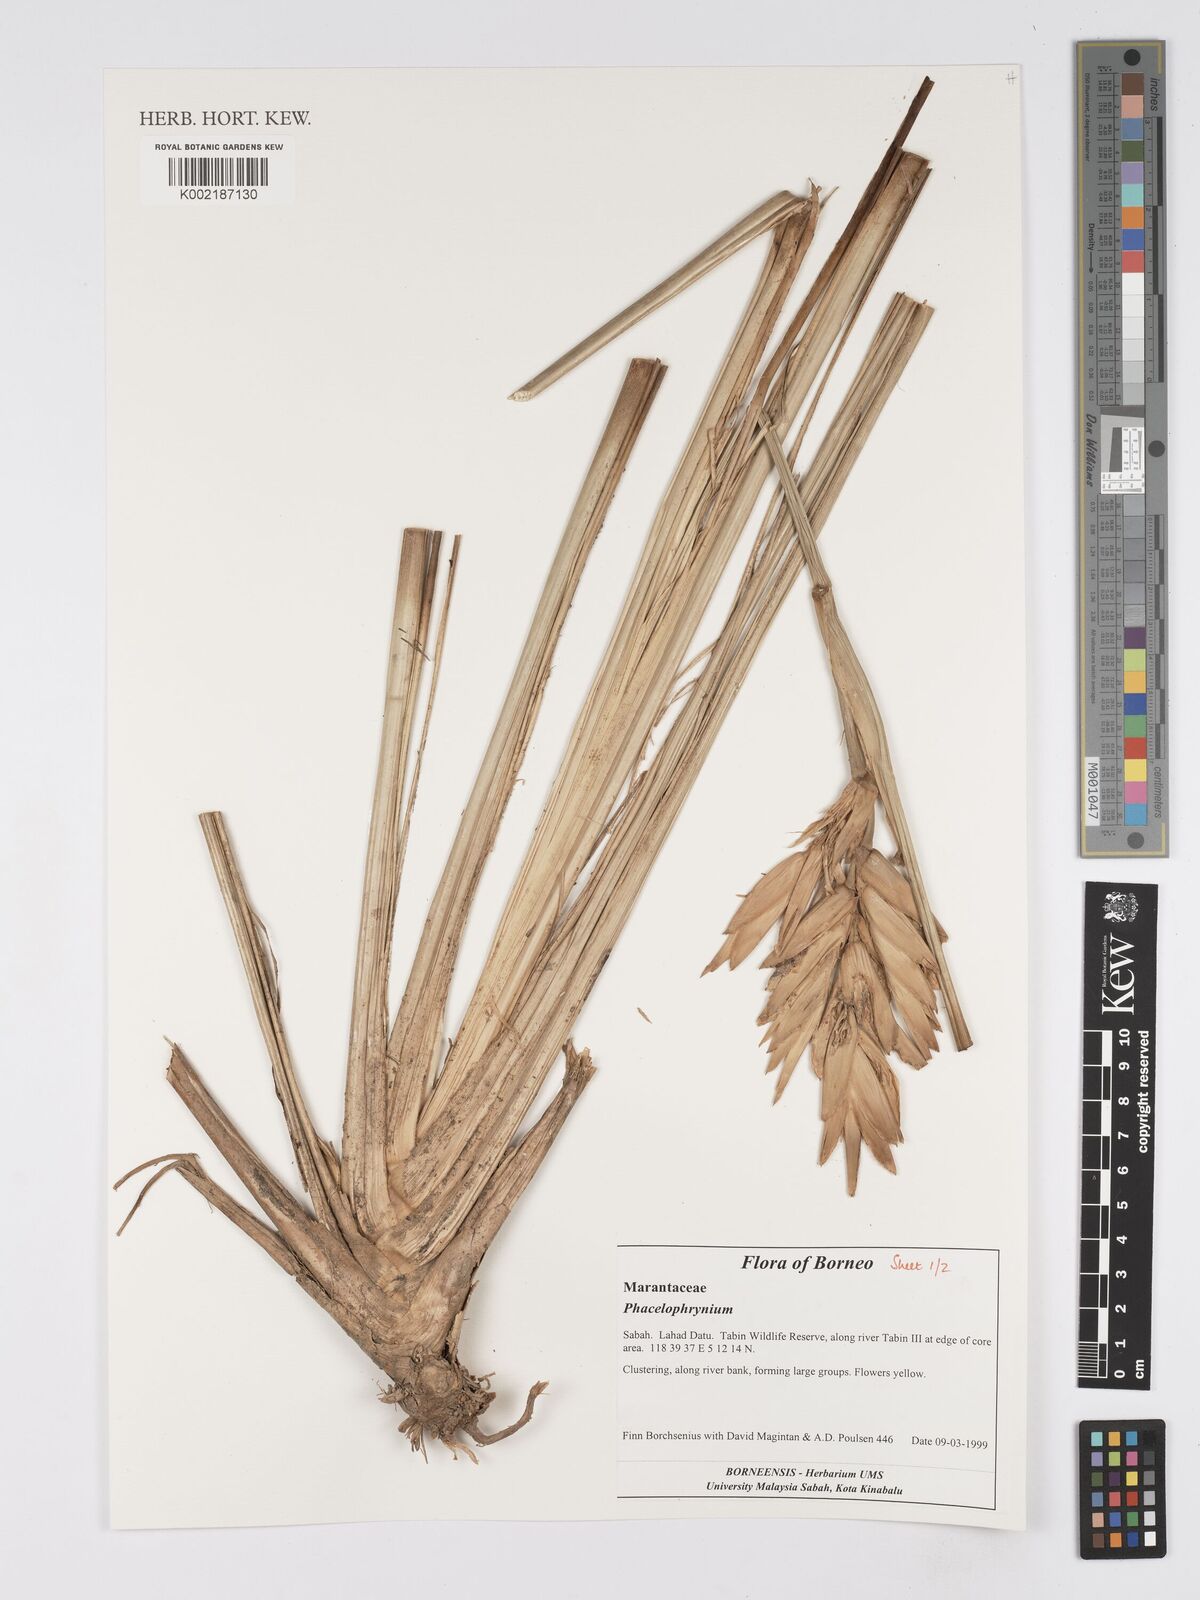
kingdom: Plantae
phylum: Tracheophyta
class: Liliopsida
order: Zingiberales
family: Marantaceae
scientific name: Marantaceae
